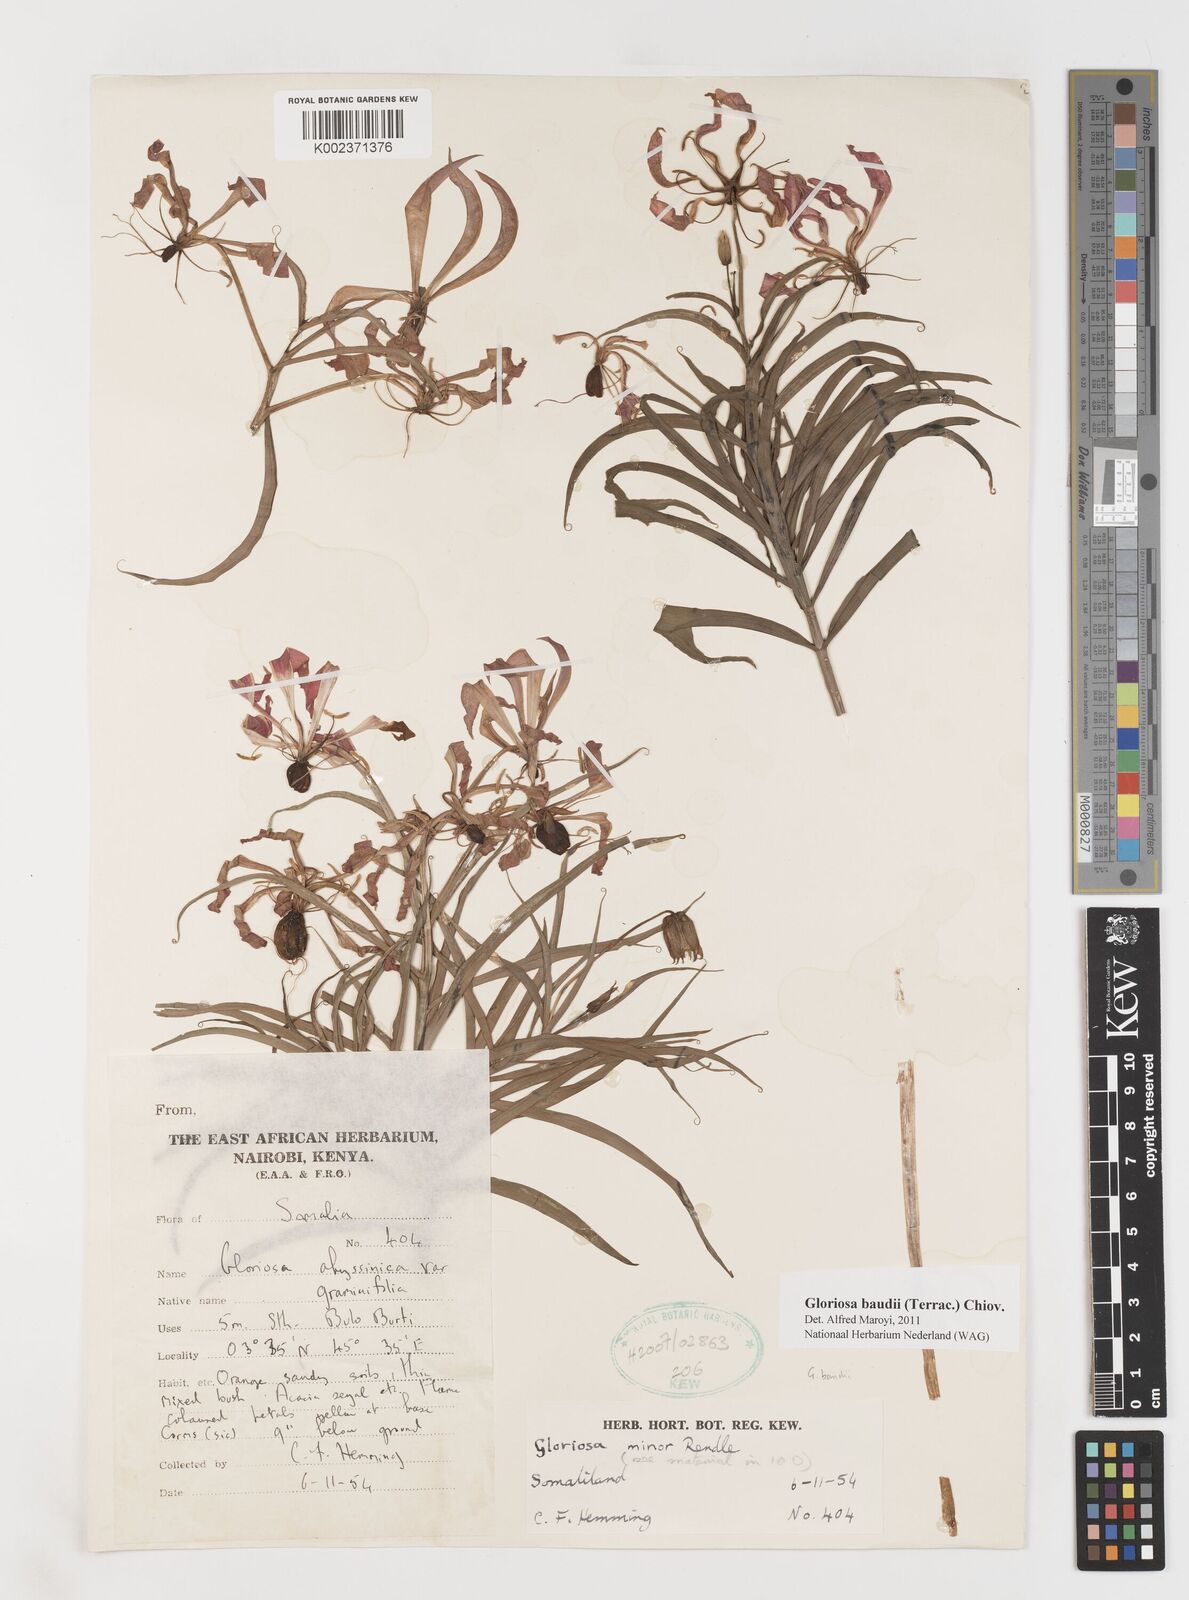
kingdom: Plantae
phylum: Tracheophyta
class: Liliopsida
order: Liliales
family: Colchicaceae
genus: Gloriosa
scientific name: Gloriosa baudii
